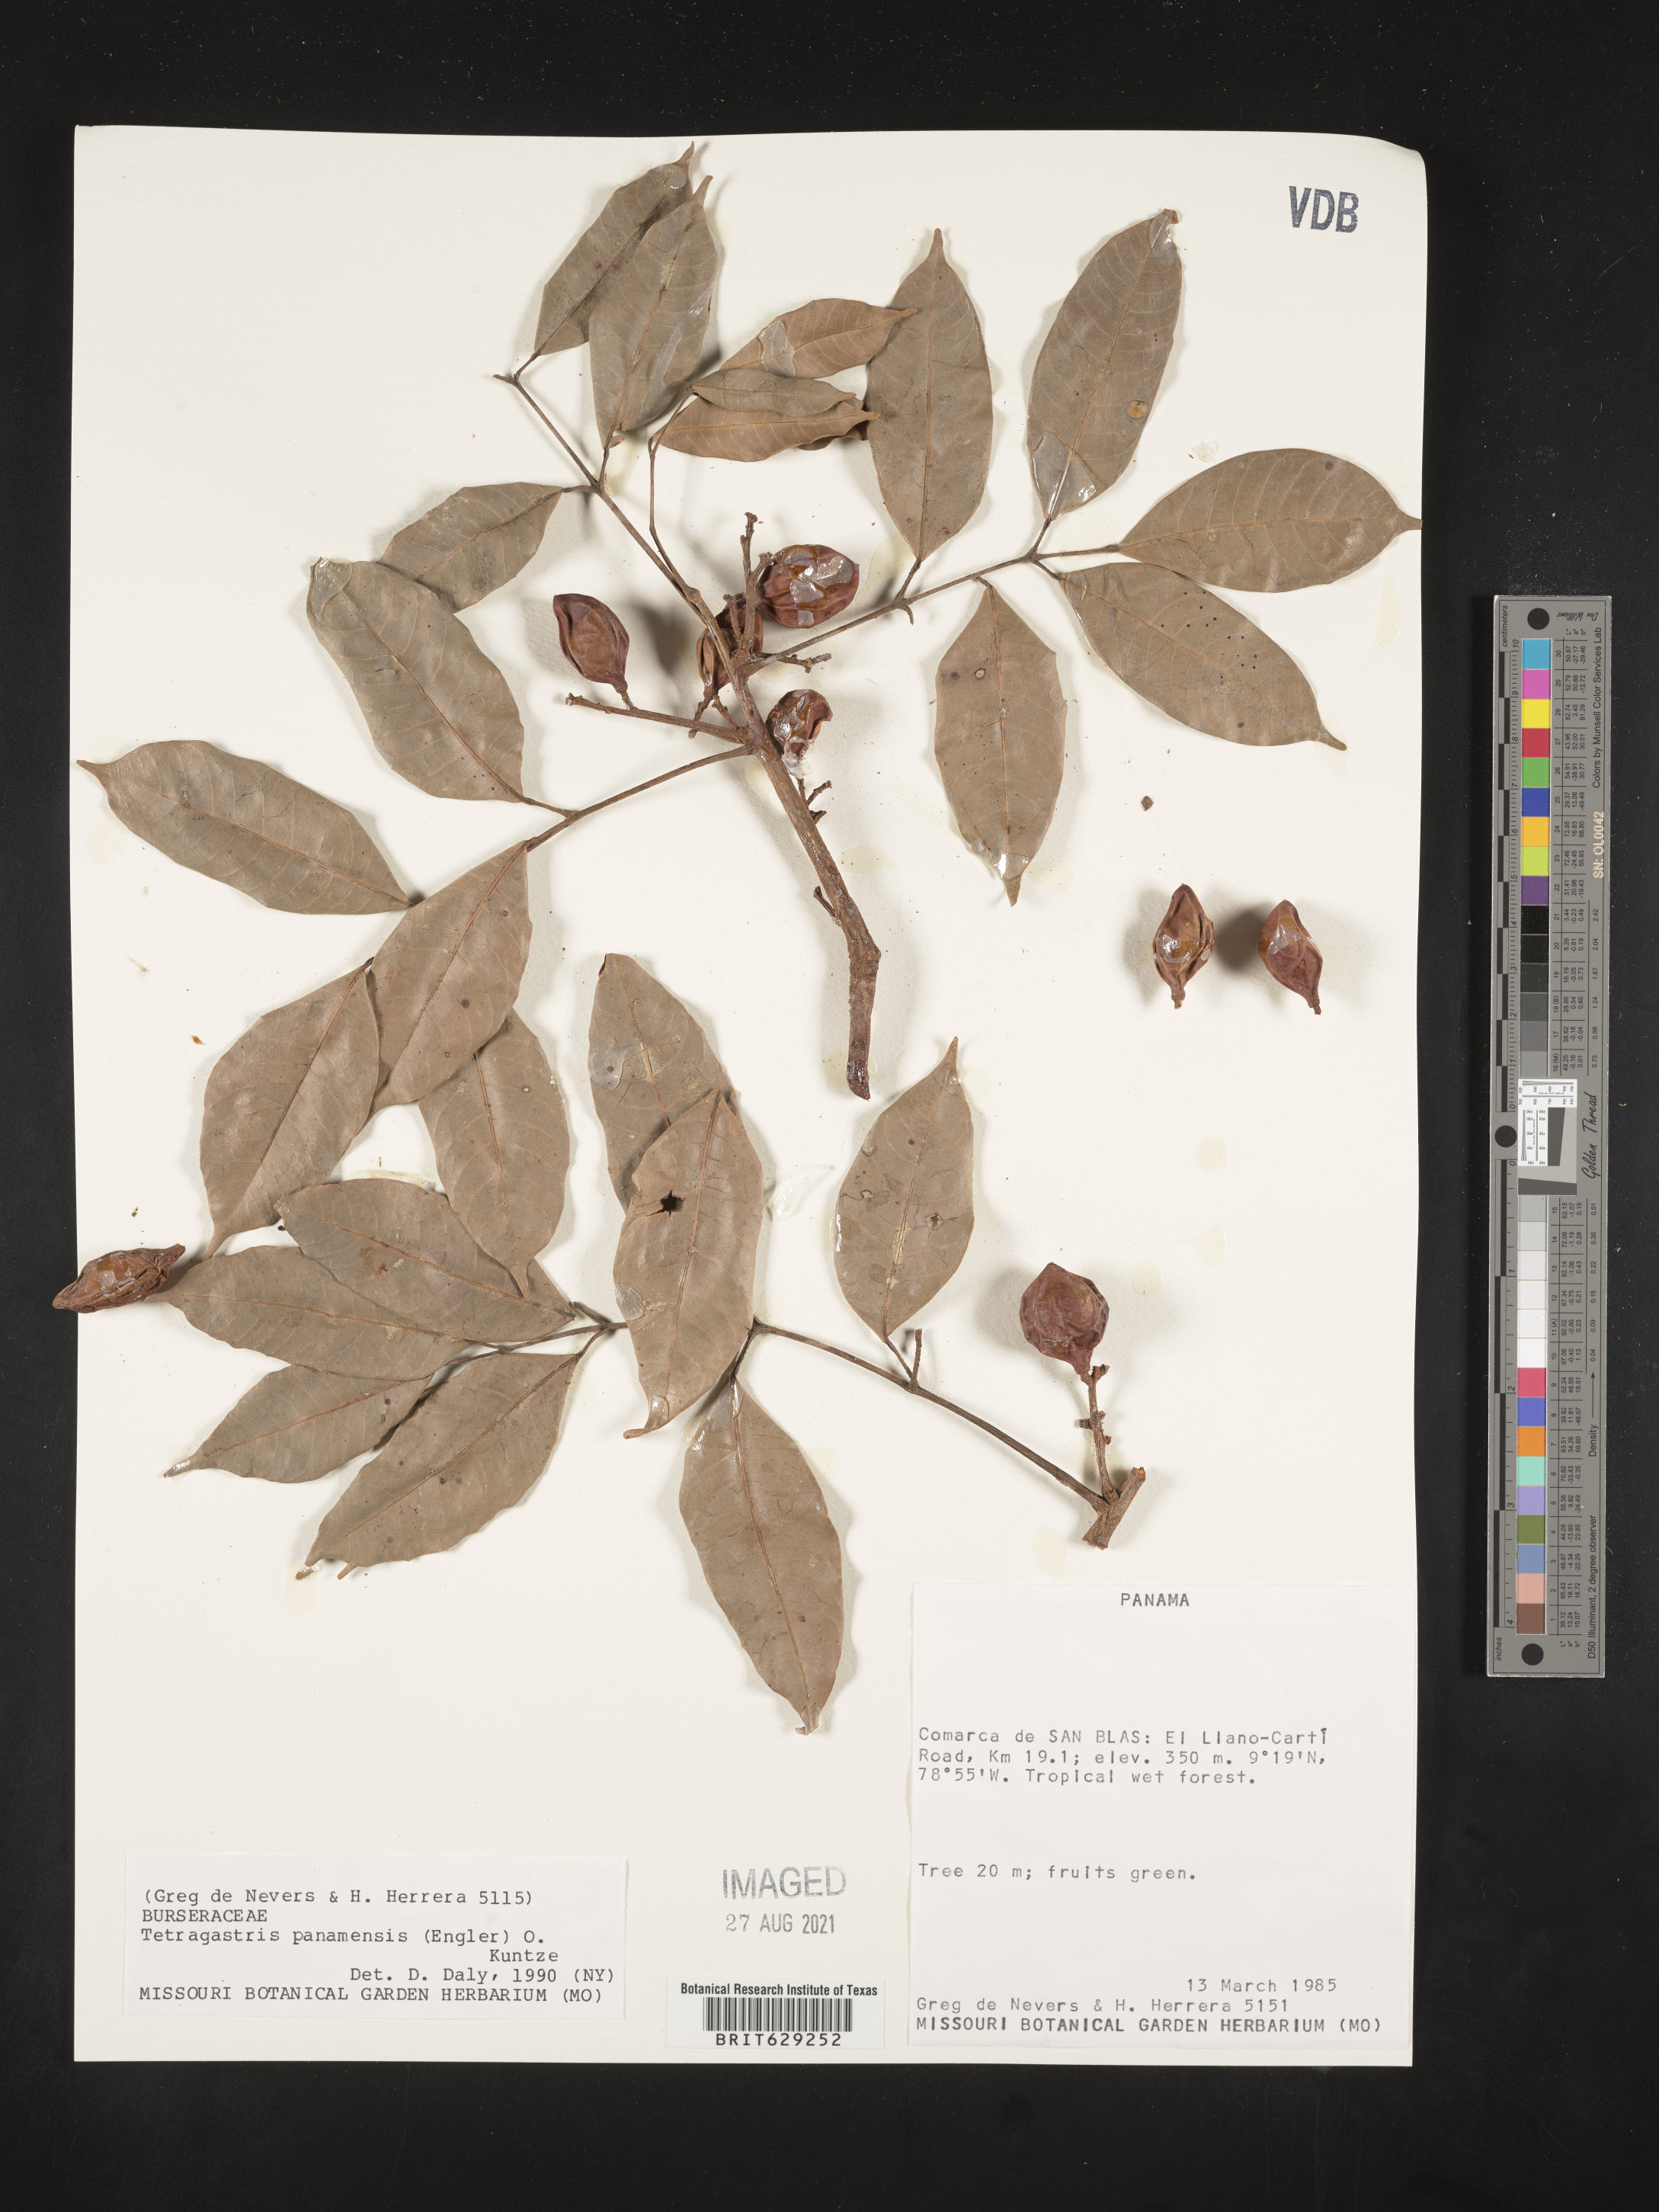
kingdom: Plantae
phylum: Tracheophyta
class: Magnoliopsida
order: Sapindales
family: Burseraceae
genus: Tetragastris
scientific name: Tetragastris panamensis
